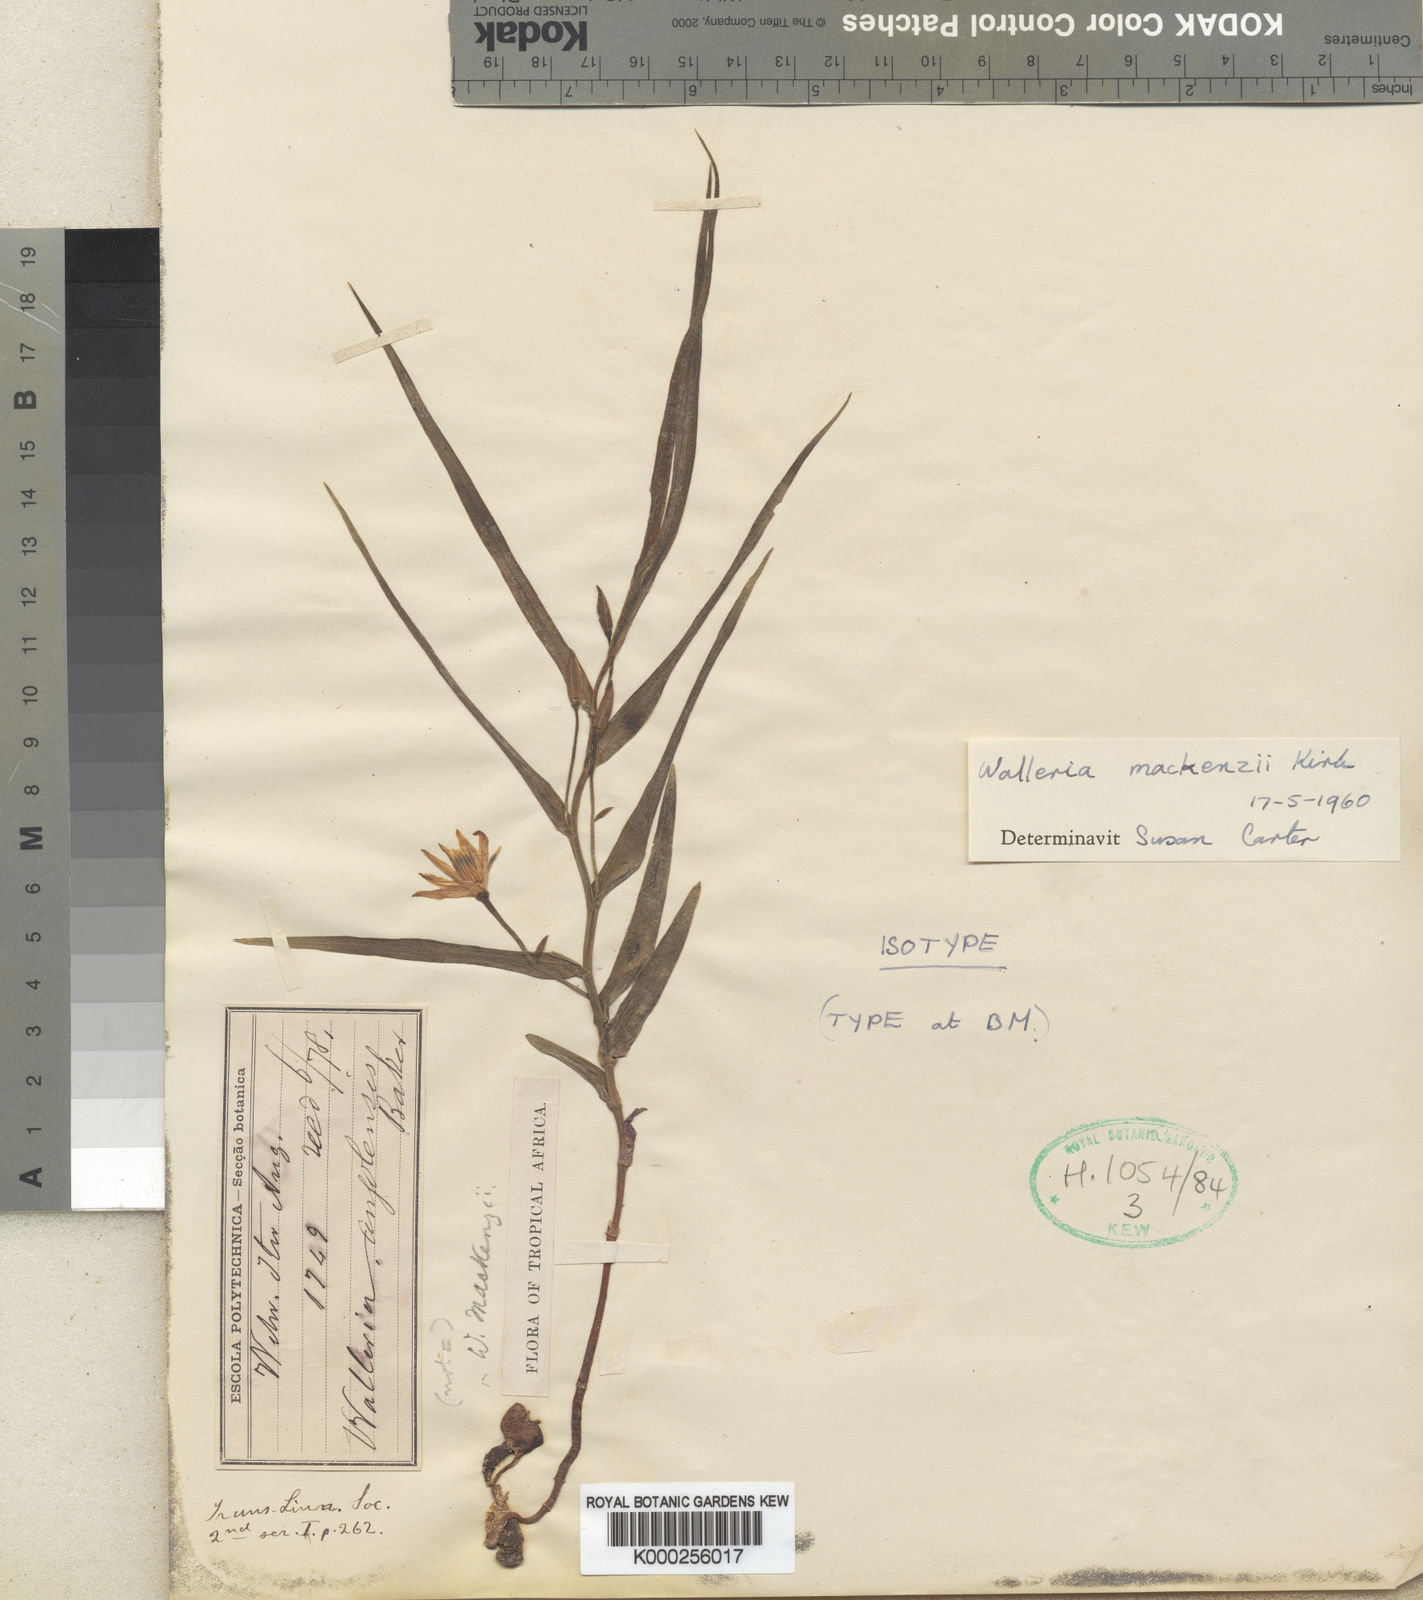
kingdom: Plantae
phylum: Tracheophyta
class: Liliopsida
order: Asparagales
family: Tecophilaeaceae
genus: Walleria
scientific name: Walleria mackenziei
